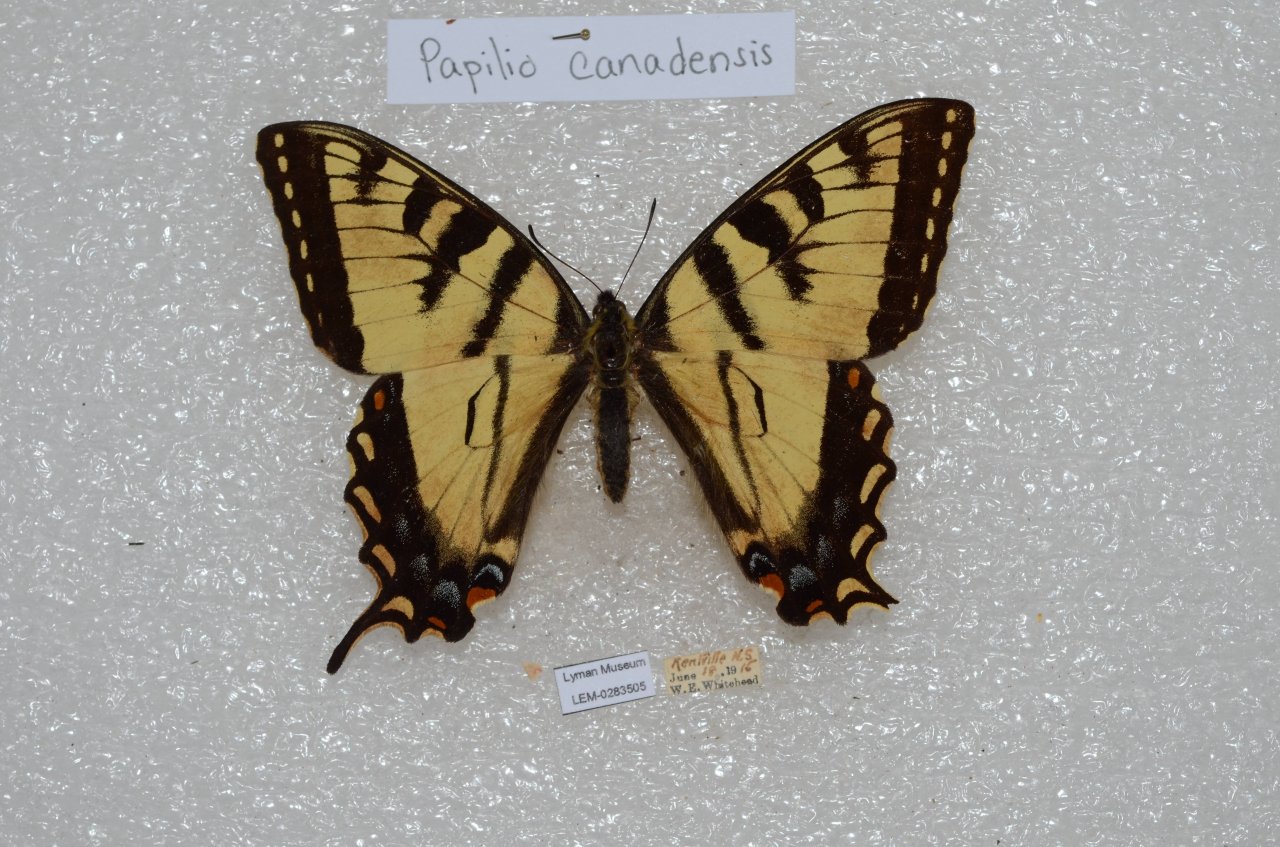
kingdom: Animalia
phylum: Arthropoda
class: Insecta
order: Lepidoptera
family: Papilionidae
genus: Pterourus
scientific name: Pterourus canadensis
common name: Canadian Tiger Swallowtail
